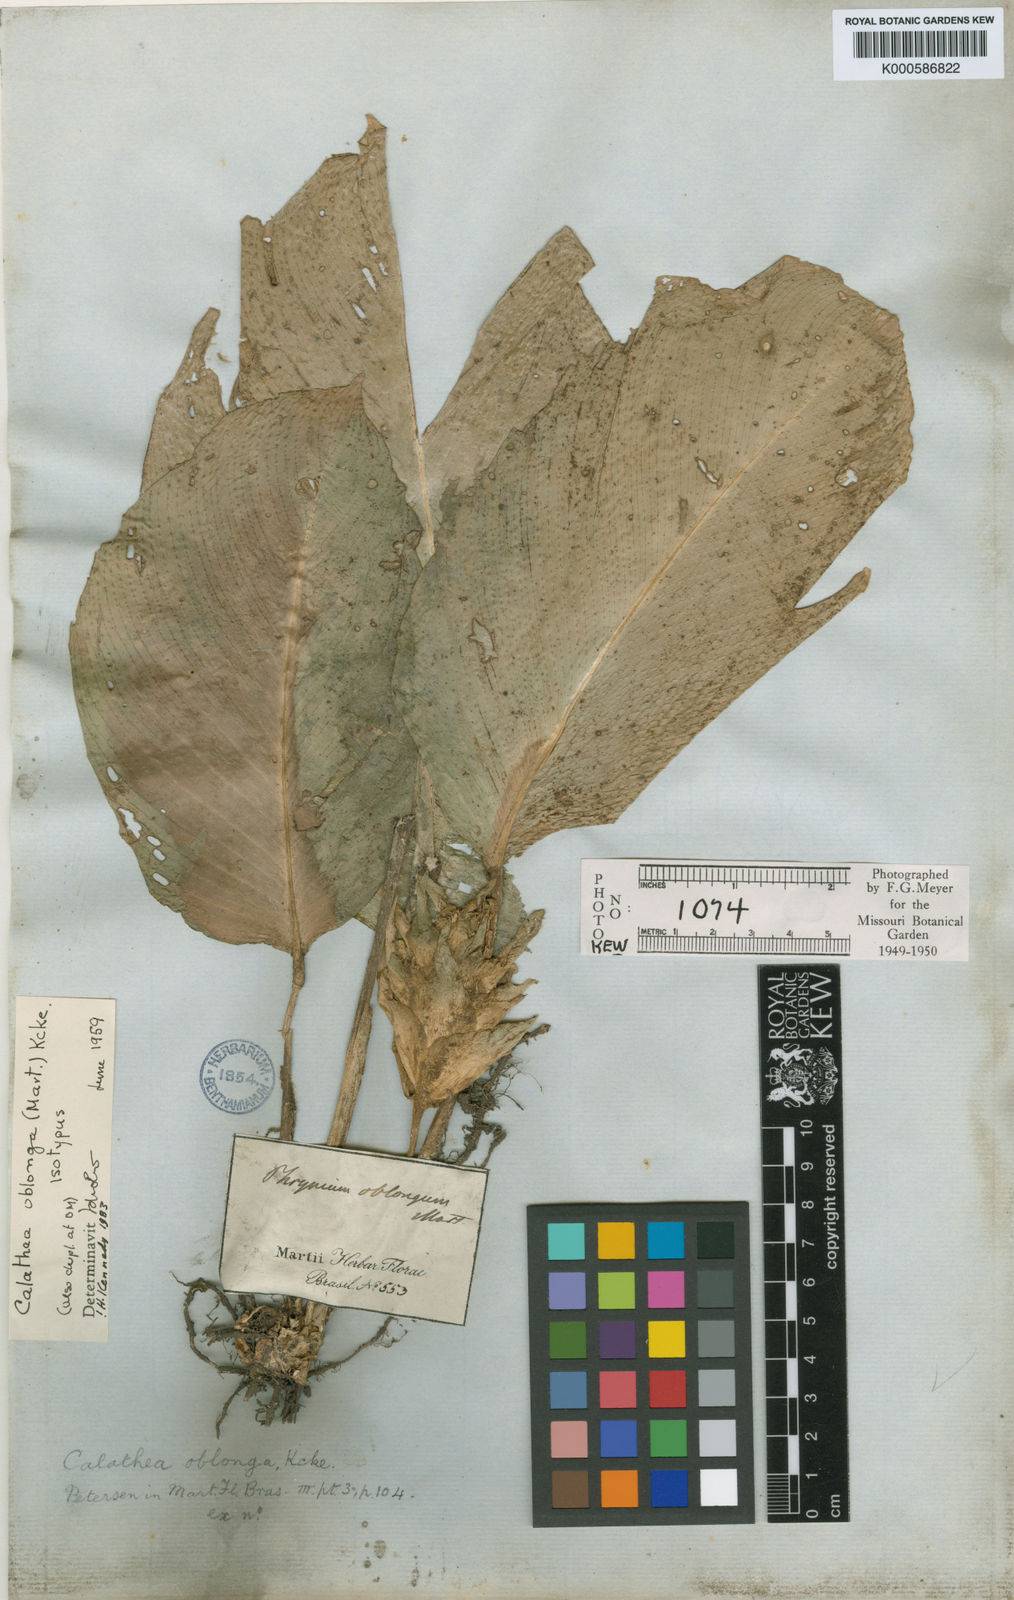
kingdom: Plantae
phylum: Tracheophyta
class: Liliopsida
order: Zingiberales
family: Marantaceae
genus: Calathea
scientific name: Calathea
